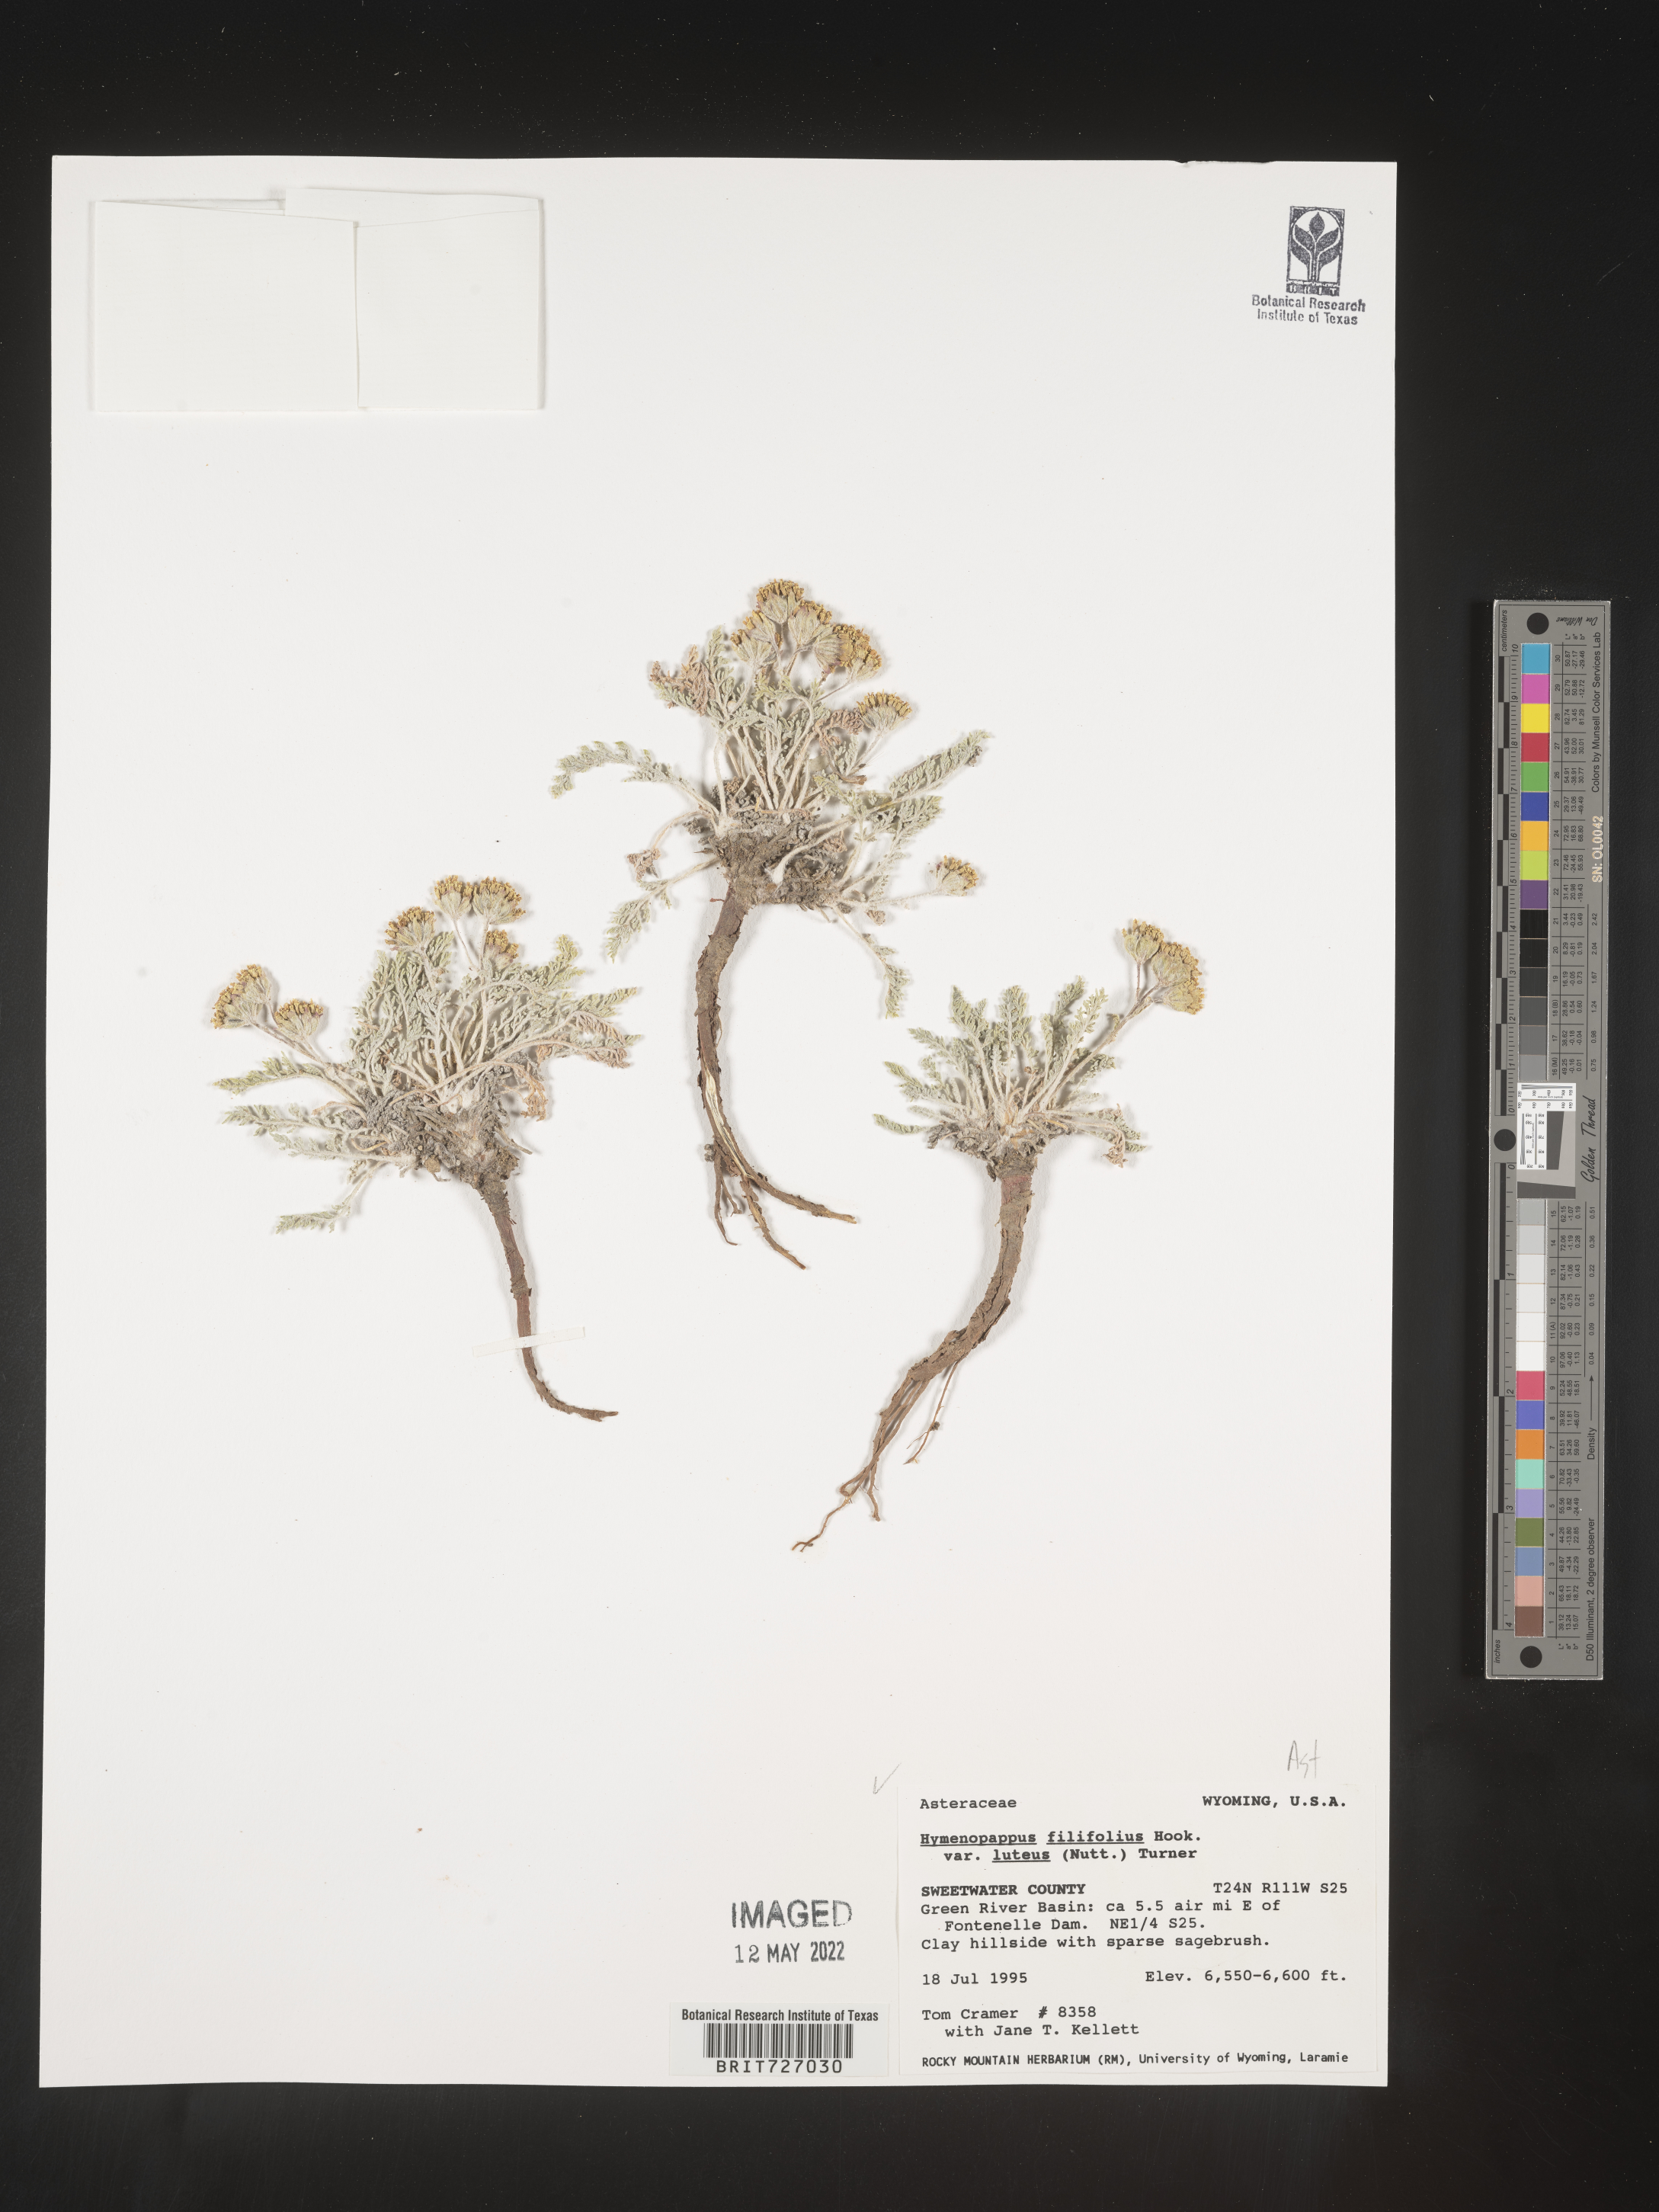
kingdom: Plantae
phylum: Tracheophyta
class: Magnoliopsida
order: Asterales
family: Asteraceae
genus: Hymenopappus
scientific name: Hymenopappus filifolius
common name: Columbia cutleaf
